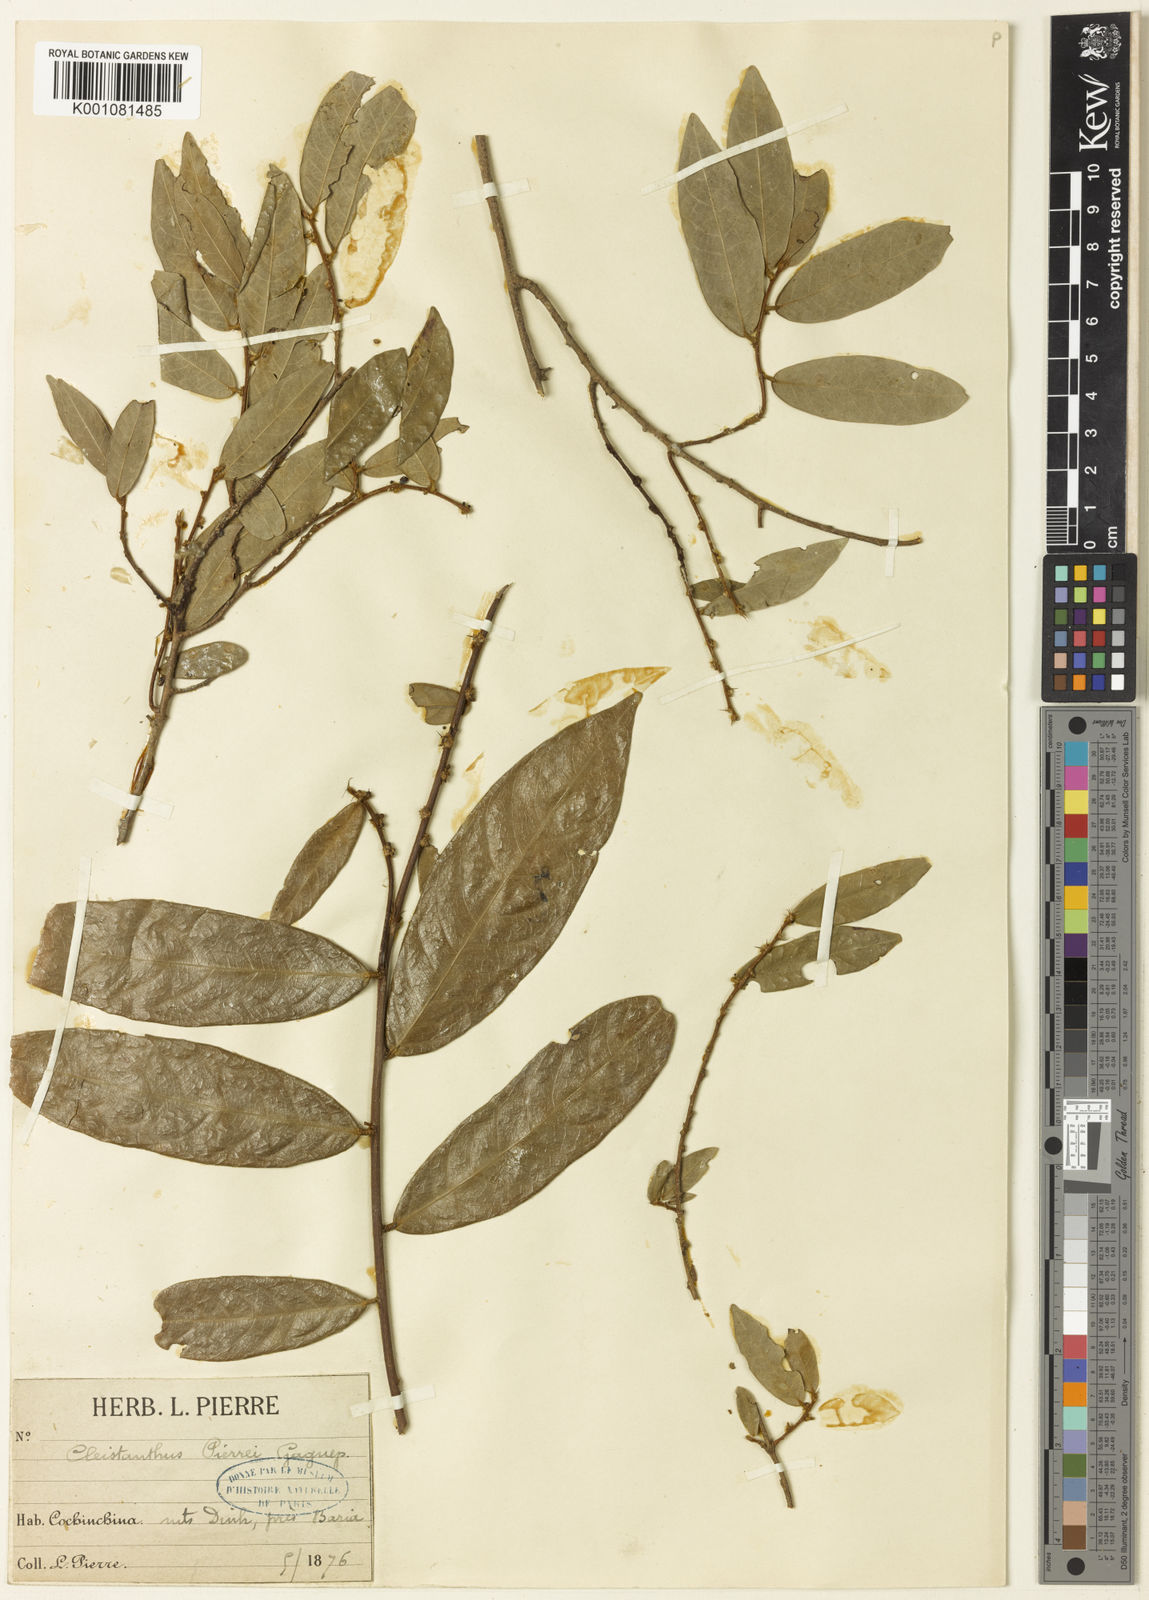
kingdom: Plantae
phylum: Tracheophyta
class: Magnoliopsida
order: Malpighiales
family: Phyllanthaceae
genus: Cleistanthus
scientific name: Cleistanthus pierrei
